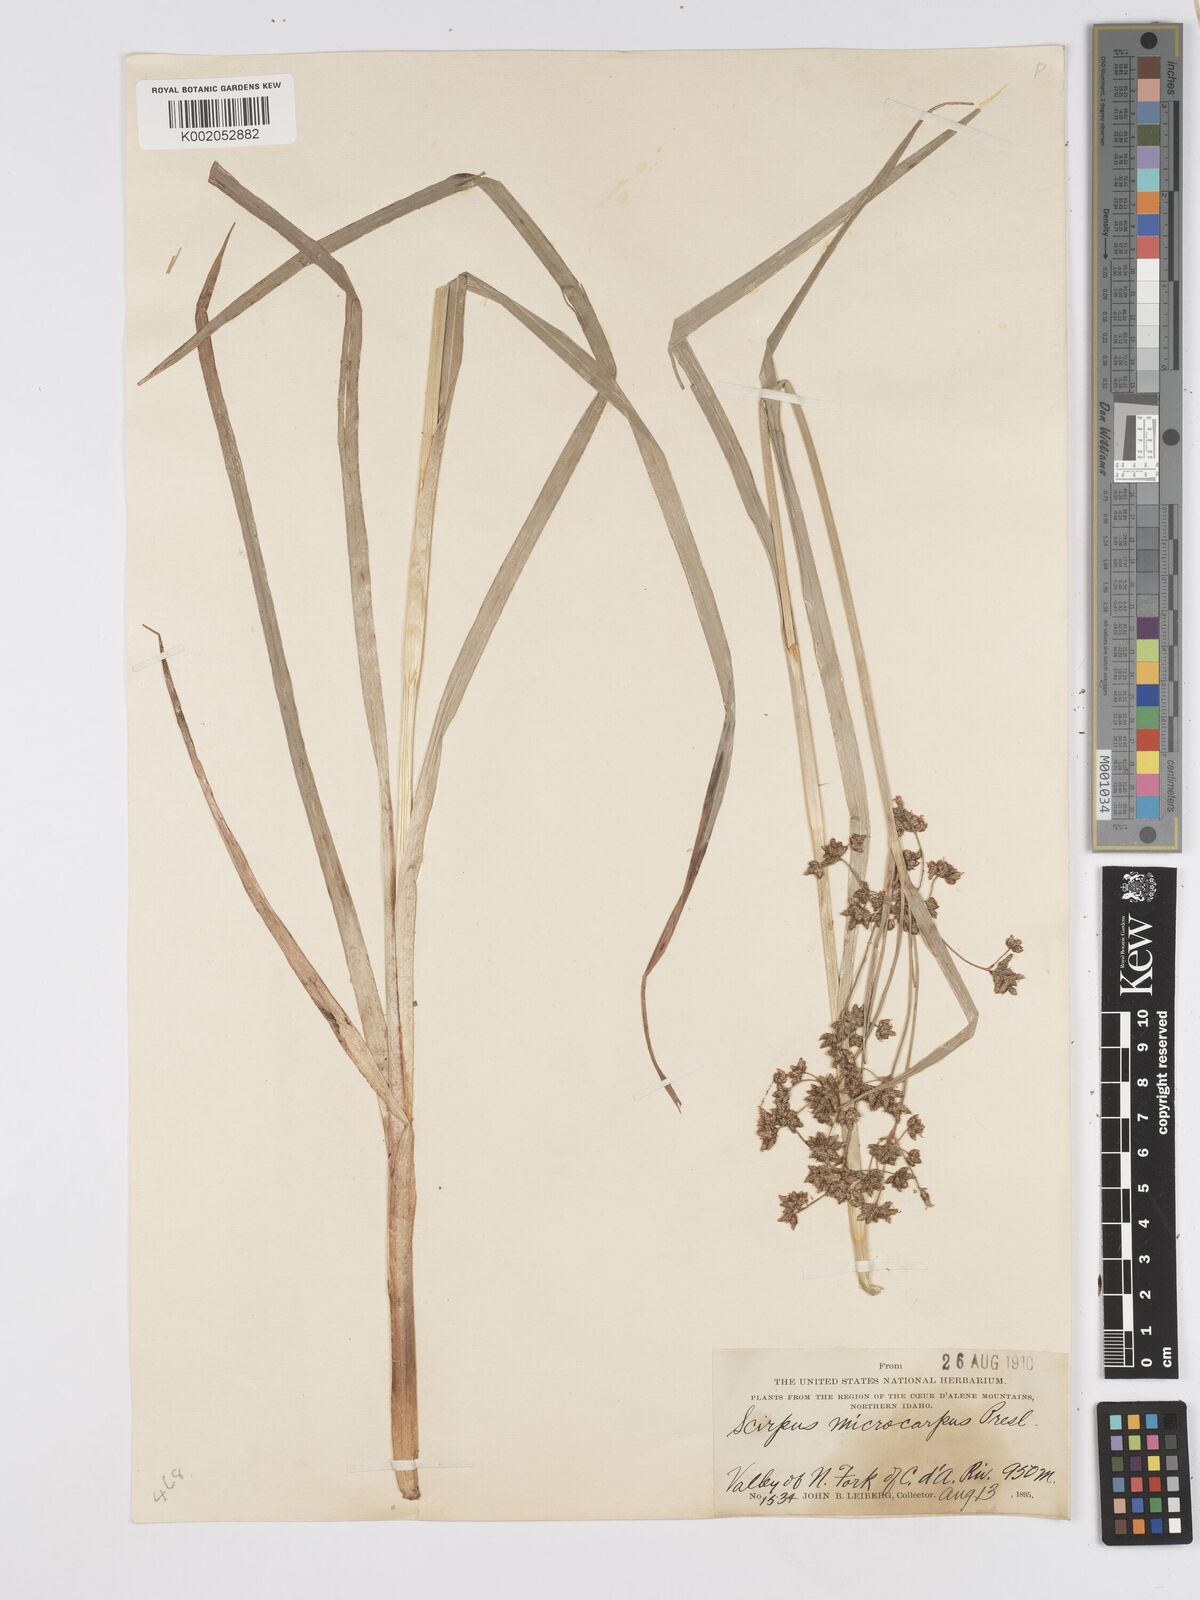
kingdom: Plantae
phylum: Tracheophyta
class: Liliopsida
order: Poales
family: Cyperaceae
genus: Scirpus
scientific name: Scirpus microcarpus
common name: Panicled bulrush
